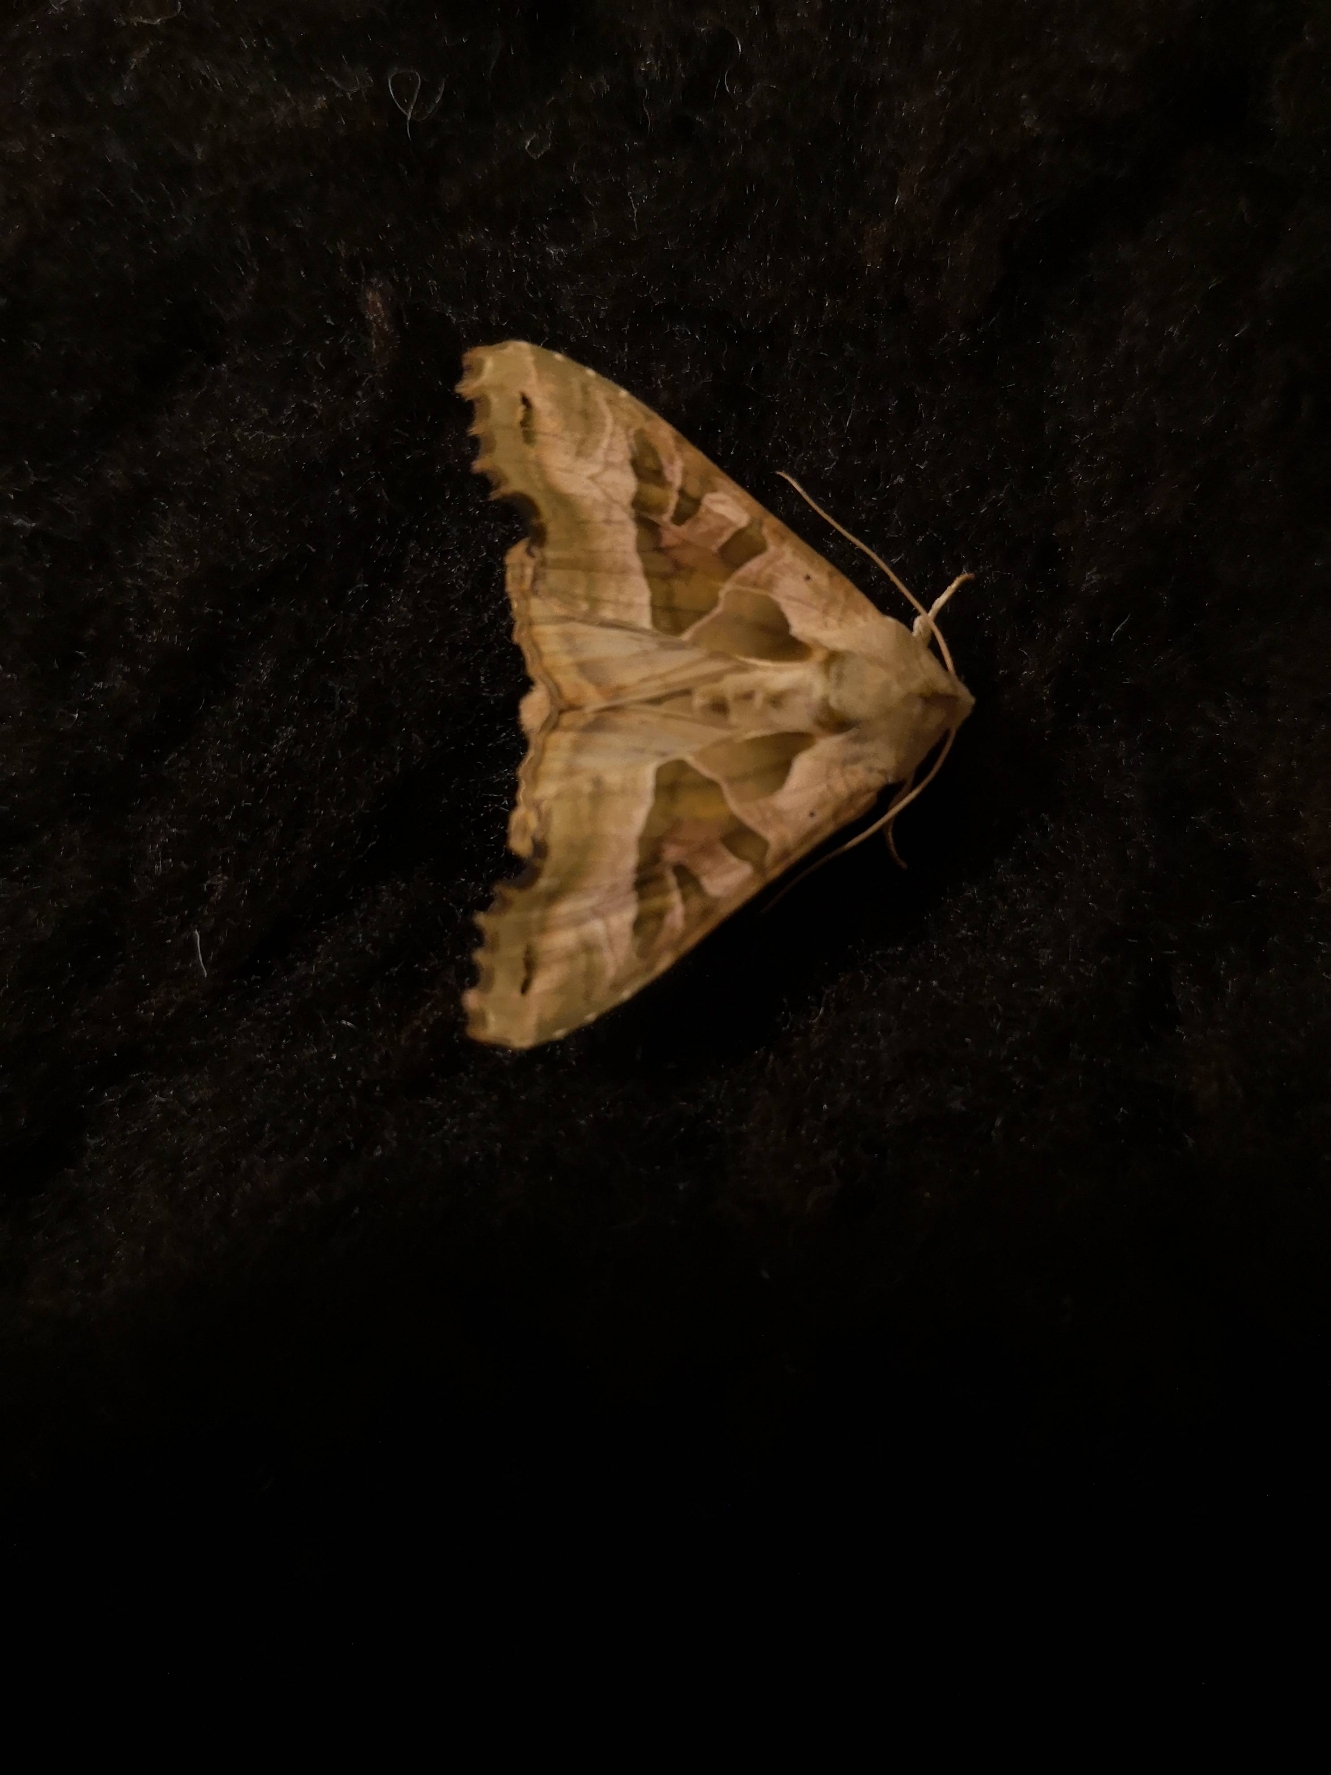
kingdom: Animalia
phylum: Arthropoda
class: Insecta
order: Lepidoptera
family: Noctuidae
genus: Phlogophora
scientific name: Phlogophora meticulosa
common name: Agatugle
